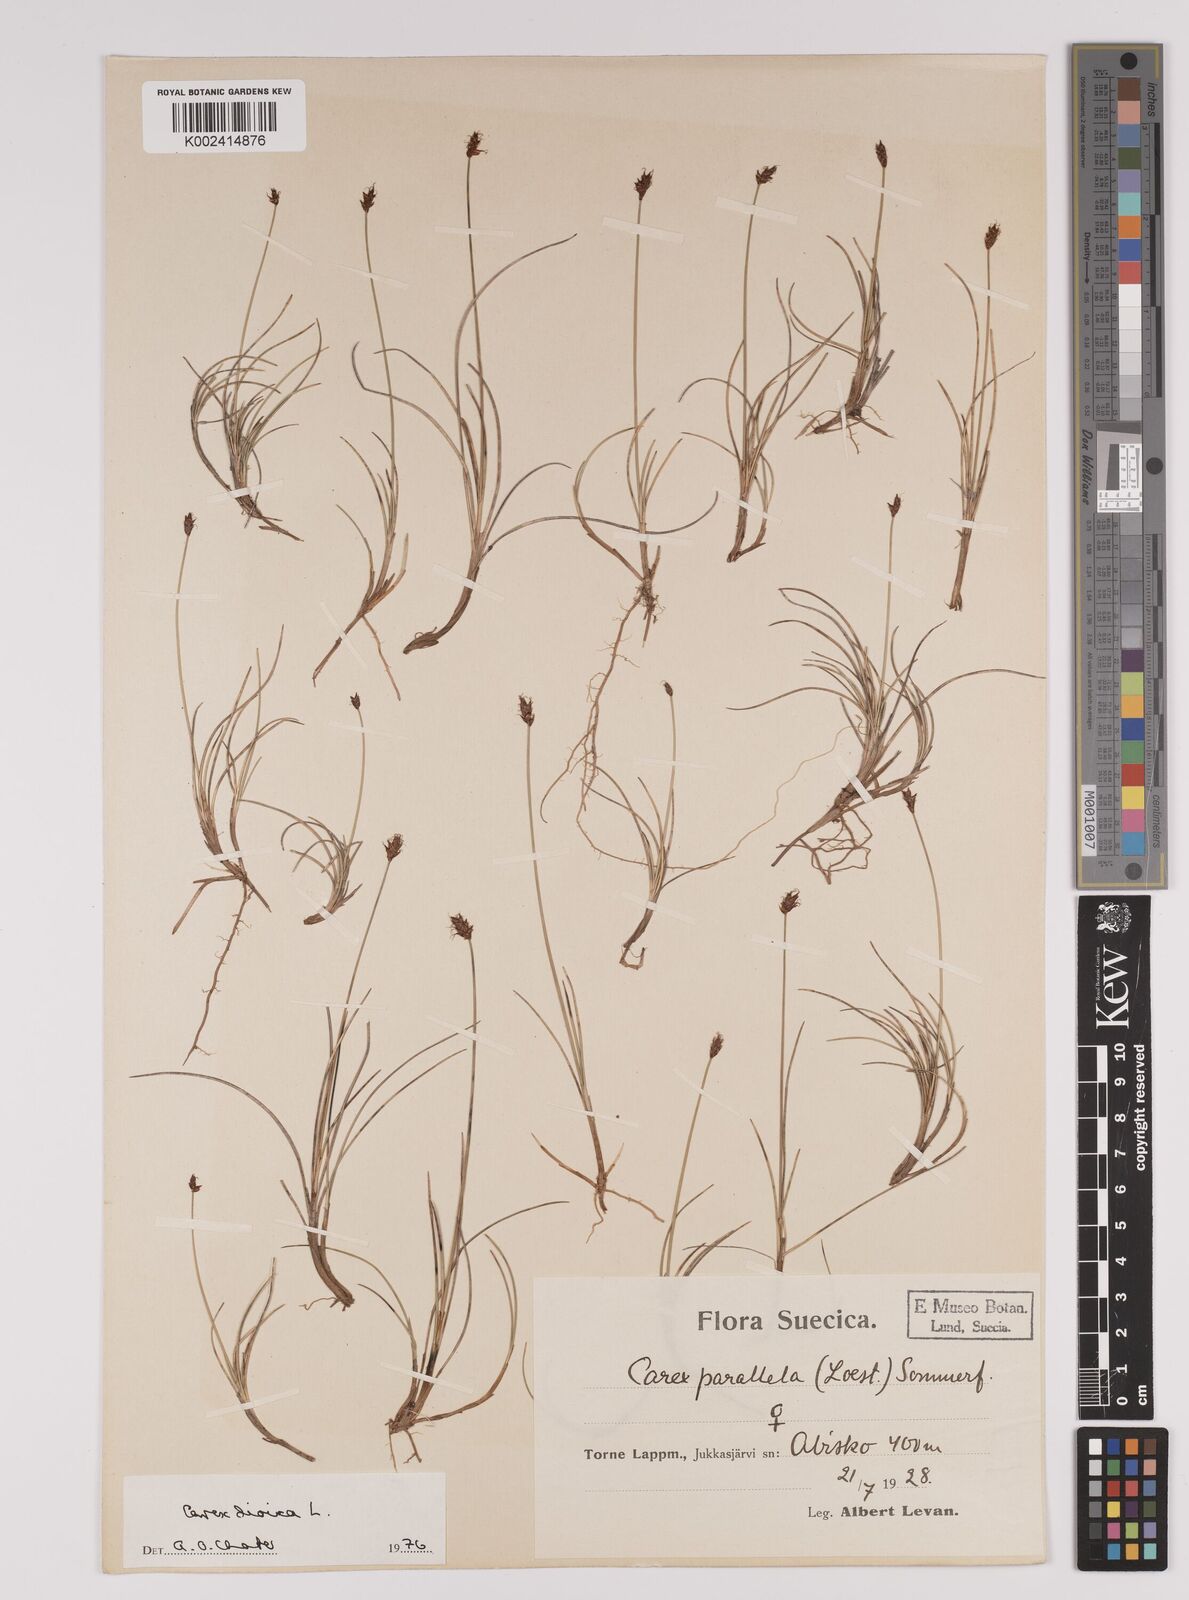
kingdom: Plantae
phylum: Tracheophyta
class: Liliopsida
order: Poales
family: Cyperaceae
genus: Carex
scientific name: Carex dioica
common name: Dioecious sedge
